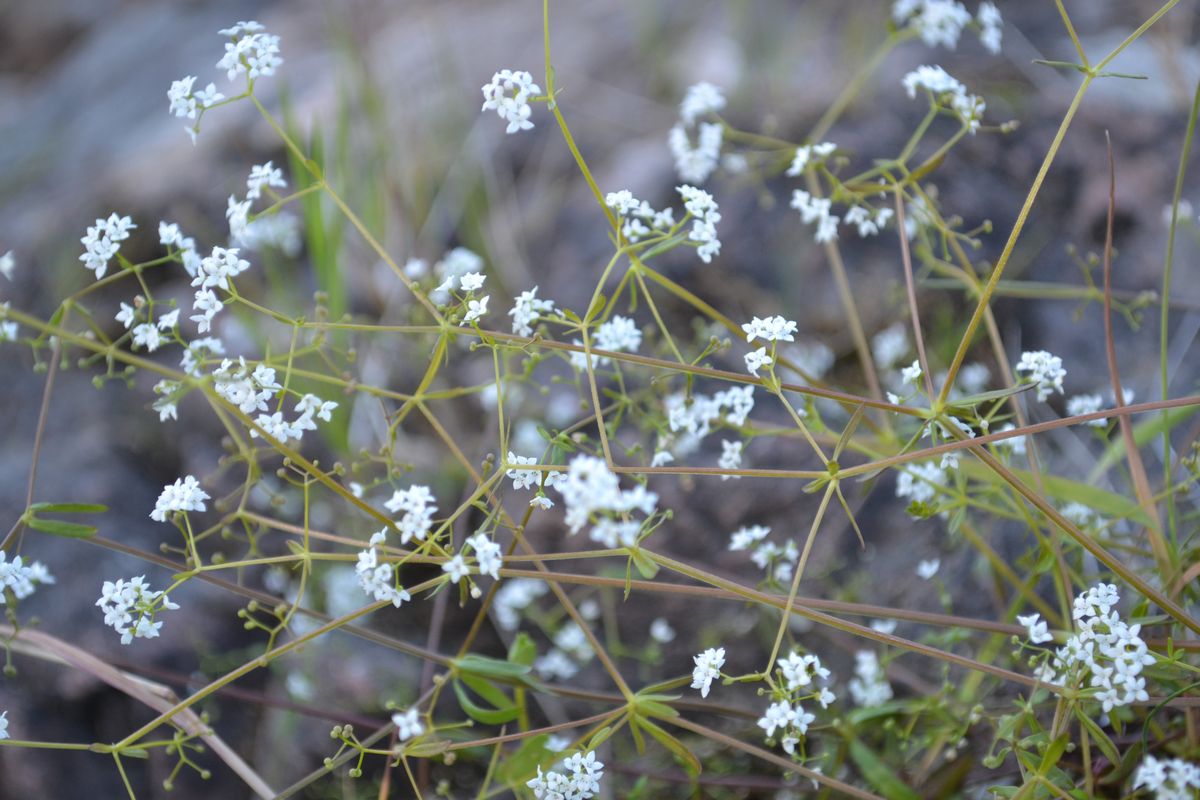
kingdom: Plantae
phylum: Tracheophyta
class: Magnoliopsida
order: Gentianales
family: Rubiaceae
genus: Galium
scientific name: Galium palustre
